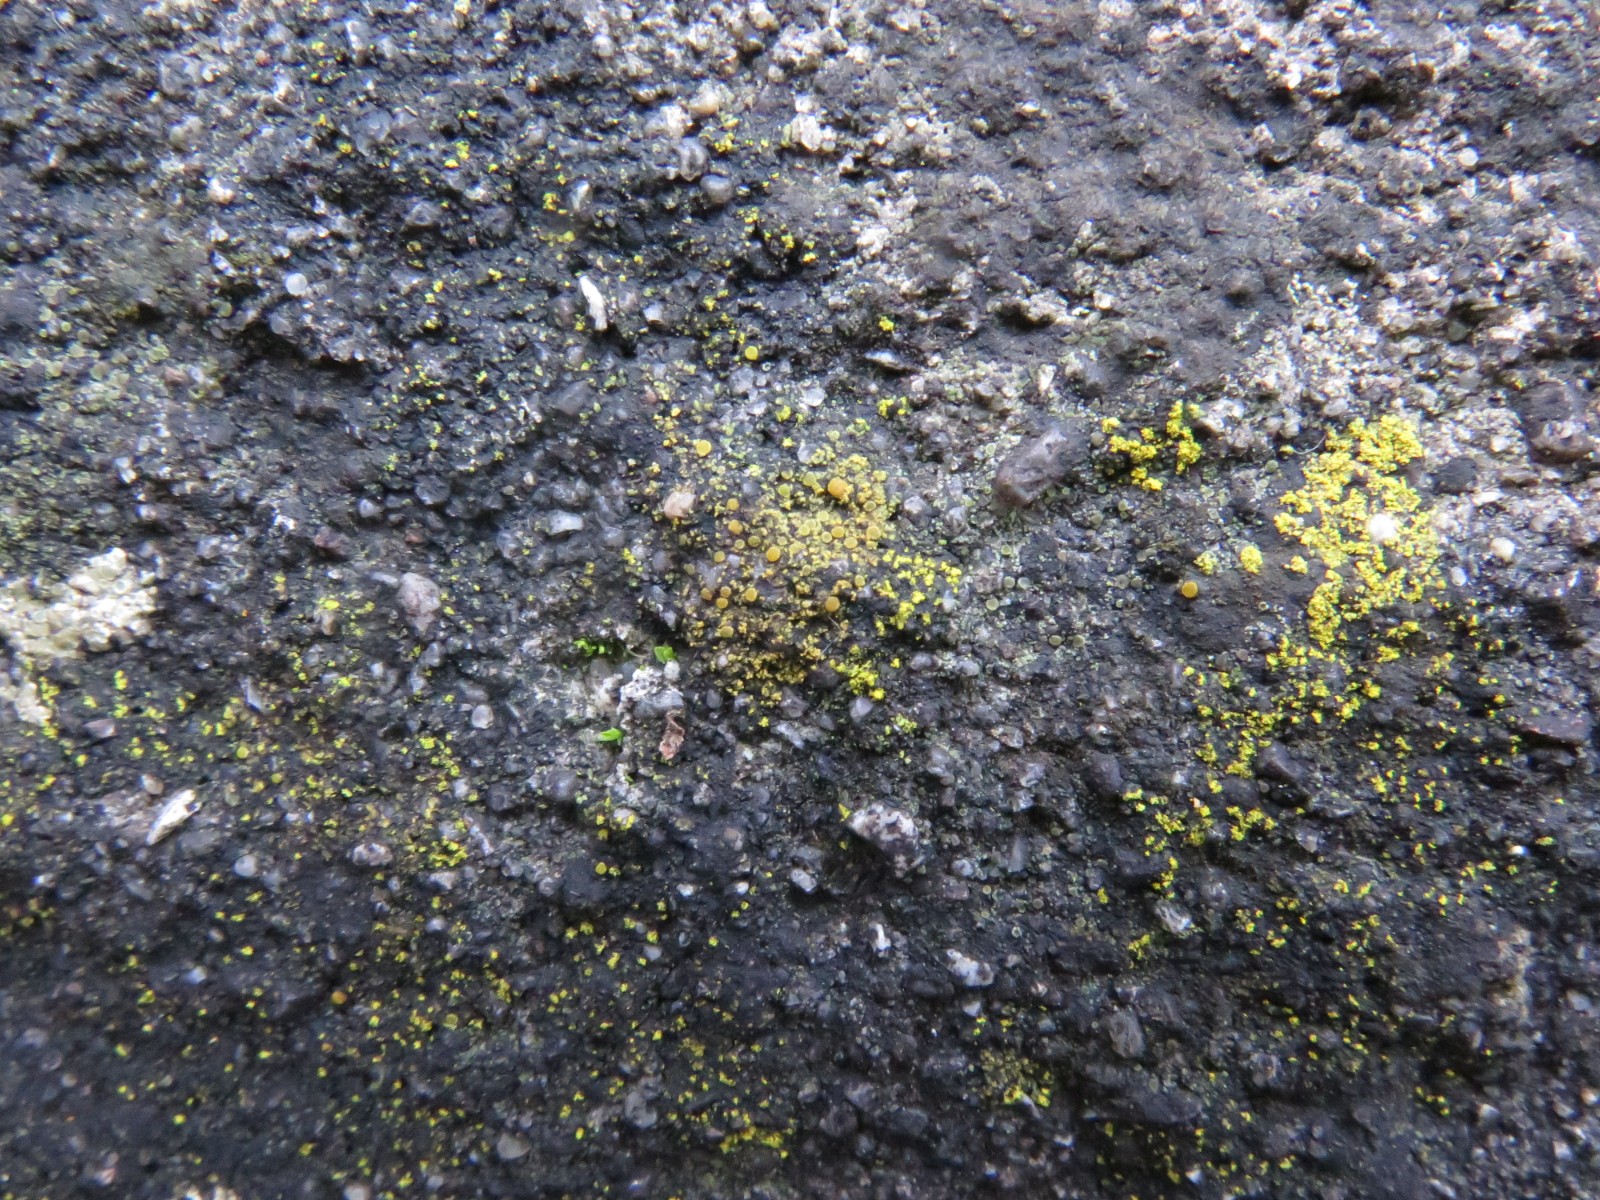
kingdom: Fungi
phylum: Ascomycota
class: Candelariomycetes
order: Candelariales
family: Candelariaceae
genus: Candelariella
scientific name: Candelariella aurella
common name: liden æggeblommelav
